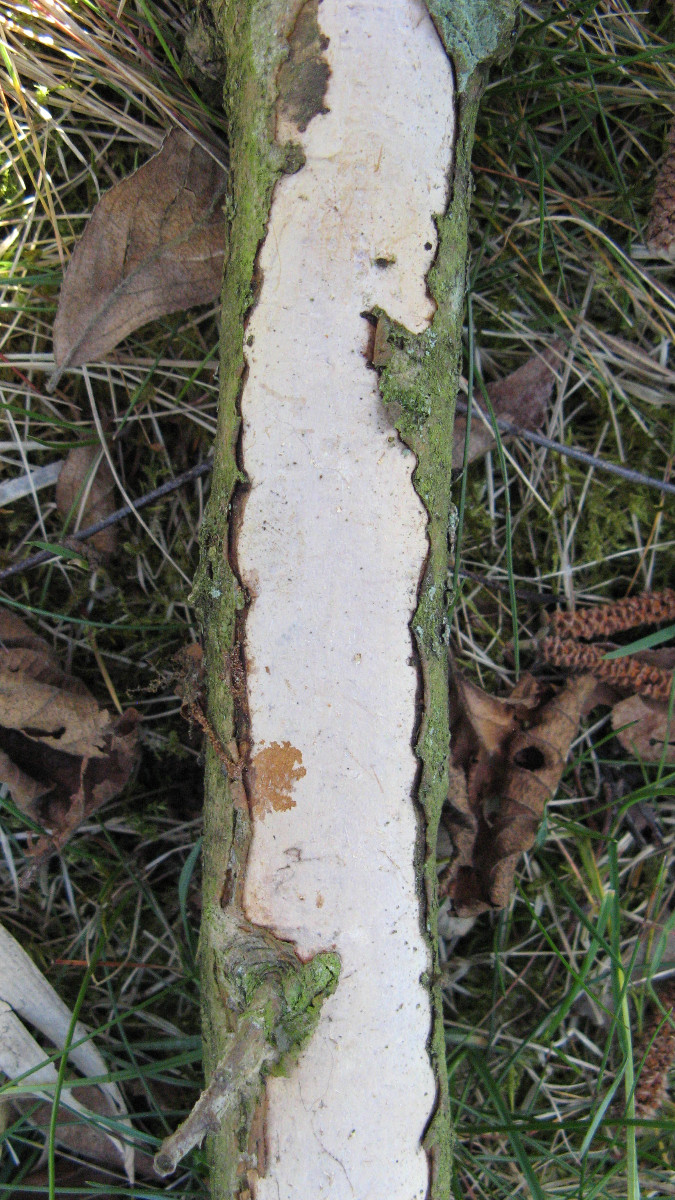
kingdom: Fungi
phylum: Basidiomycota
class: Agaricomycetes
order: Corticiales
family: Vuilleminiaceae
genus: Vuilleminia
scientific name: Vuilleminia cystidiata
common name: tjørne-barksprænger
